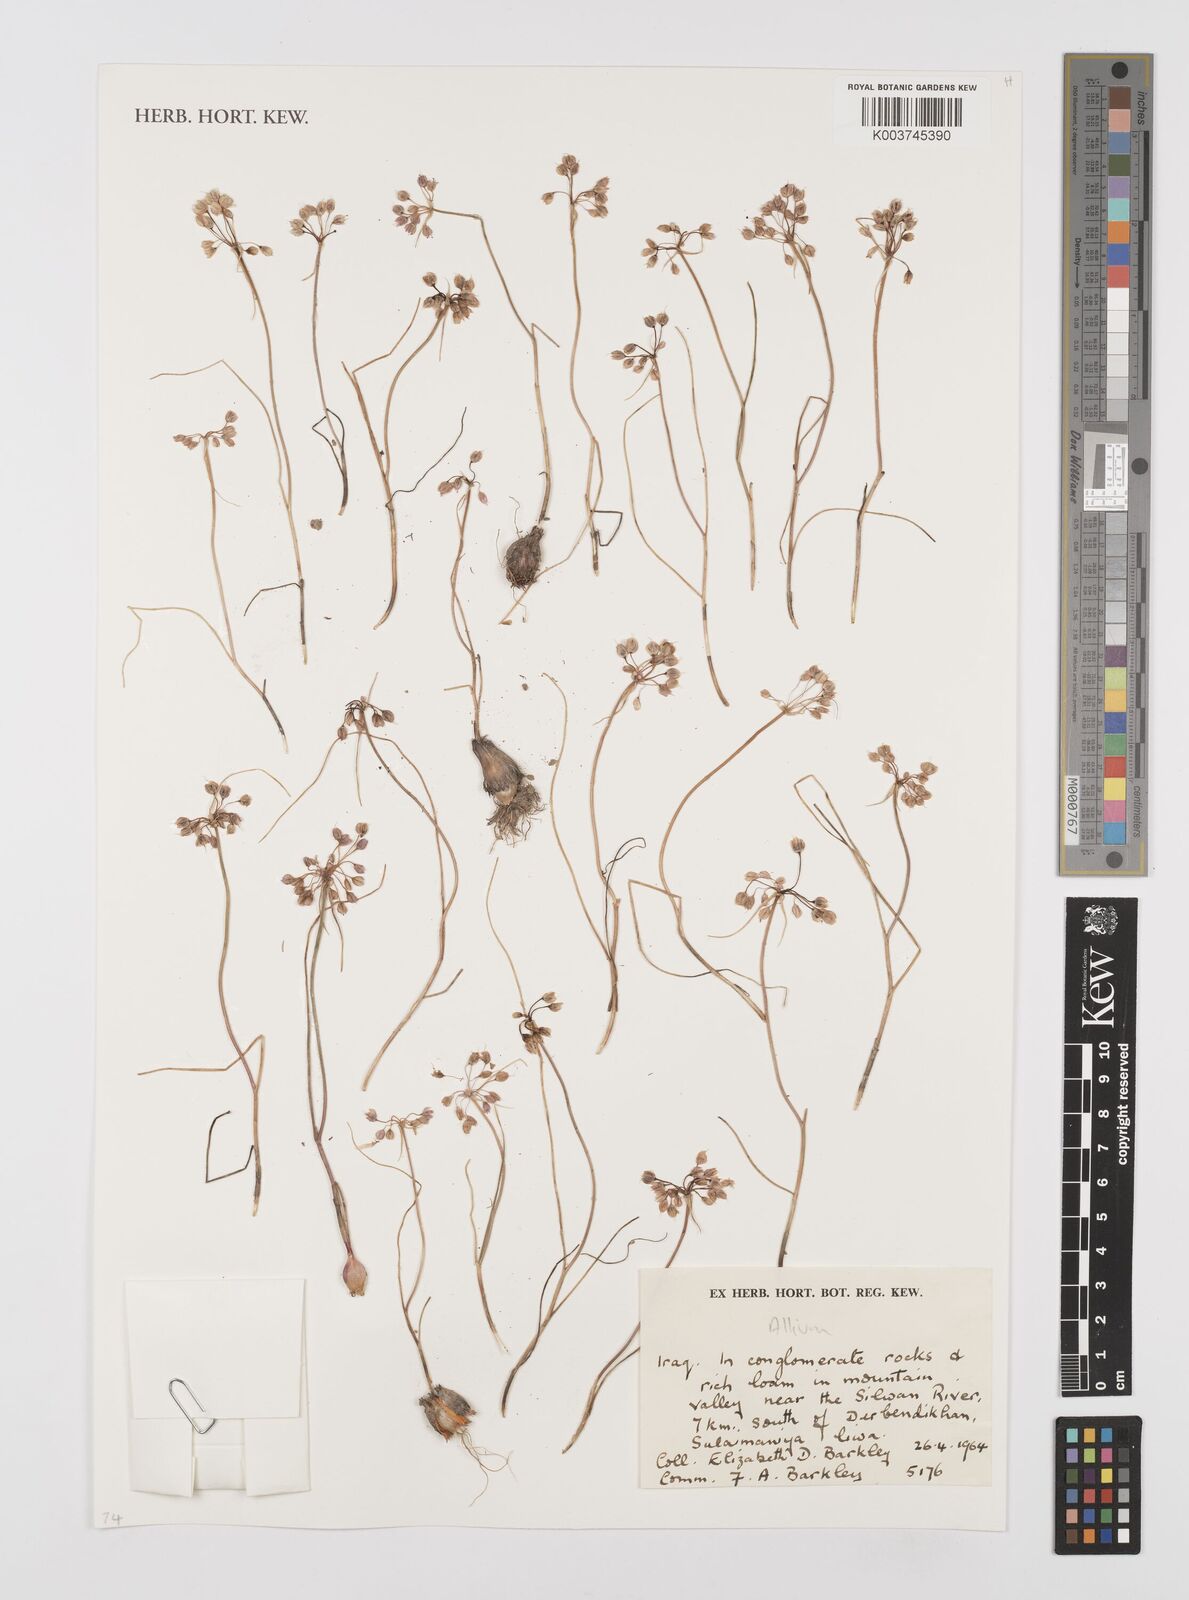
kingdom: Plantae
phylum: Tracheophyta
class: Liliopsida
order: Asparagales
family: Amaryllidaceae
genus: Allium
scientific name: Allium
